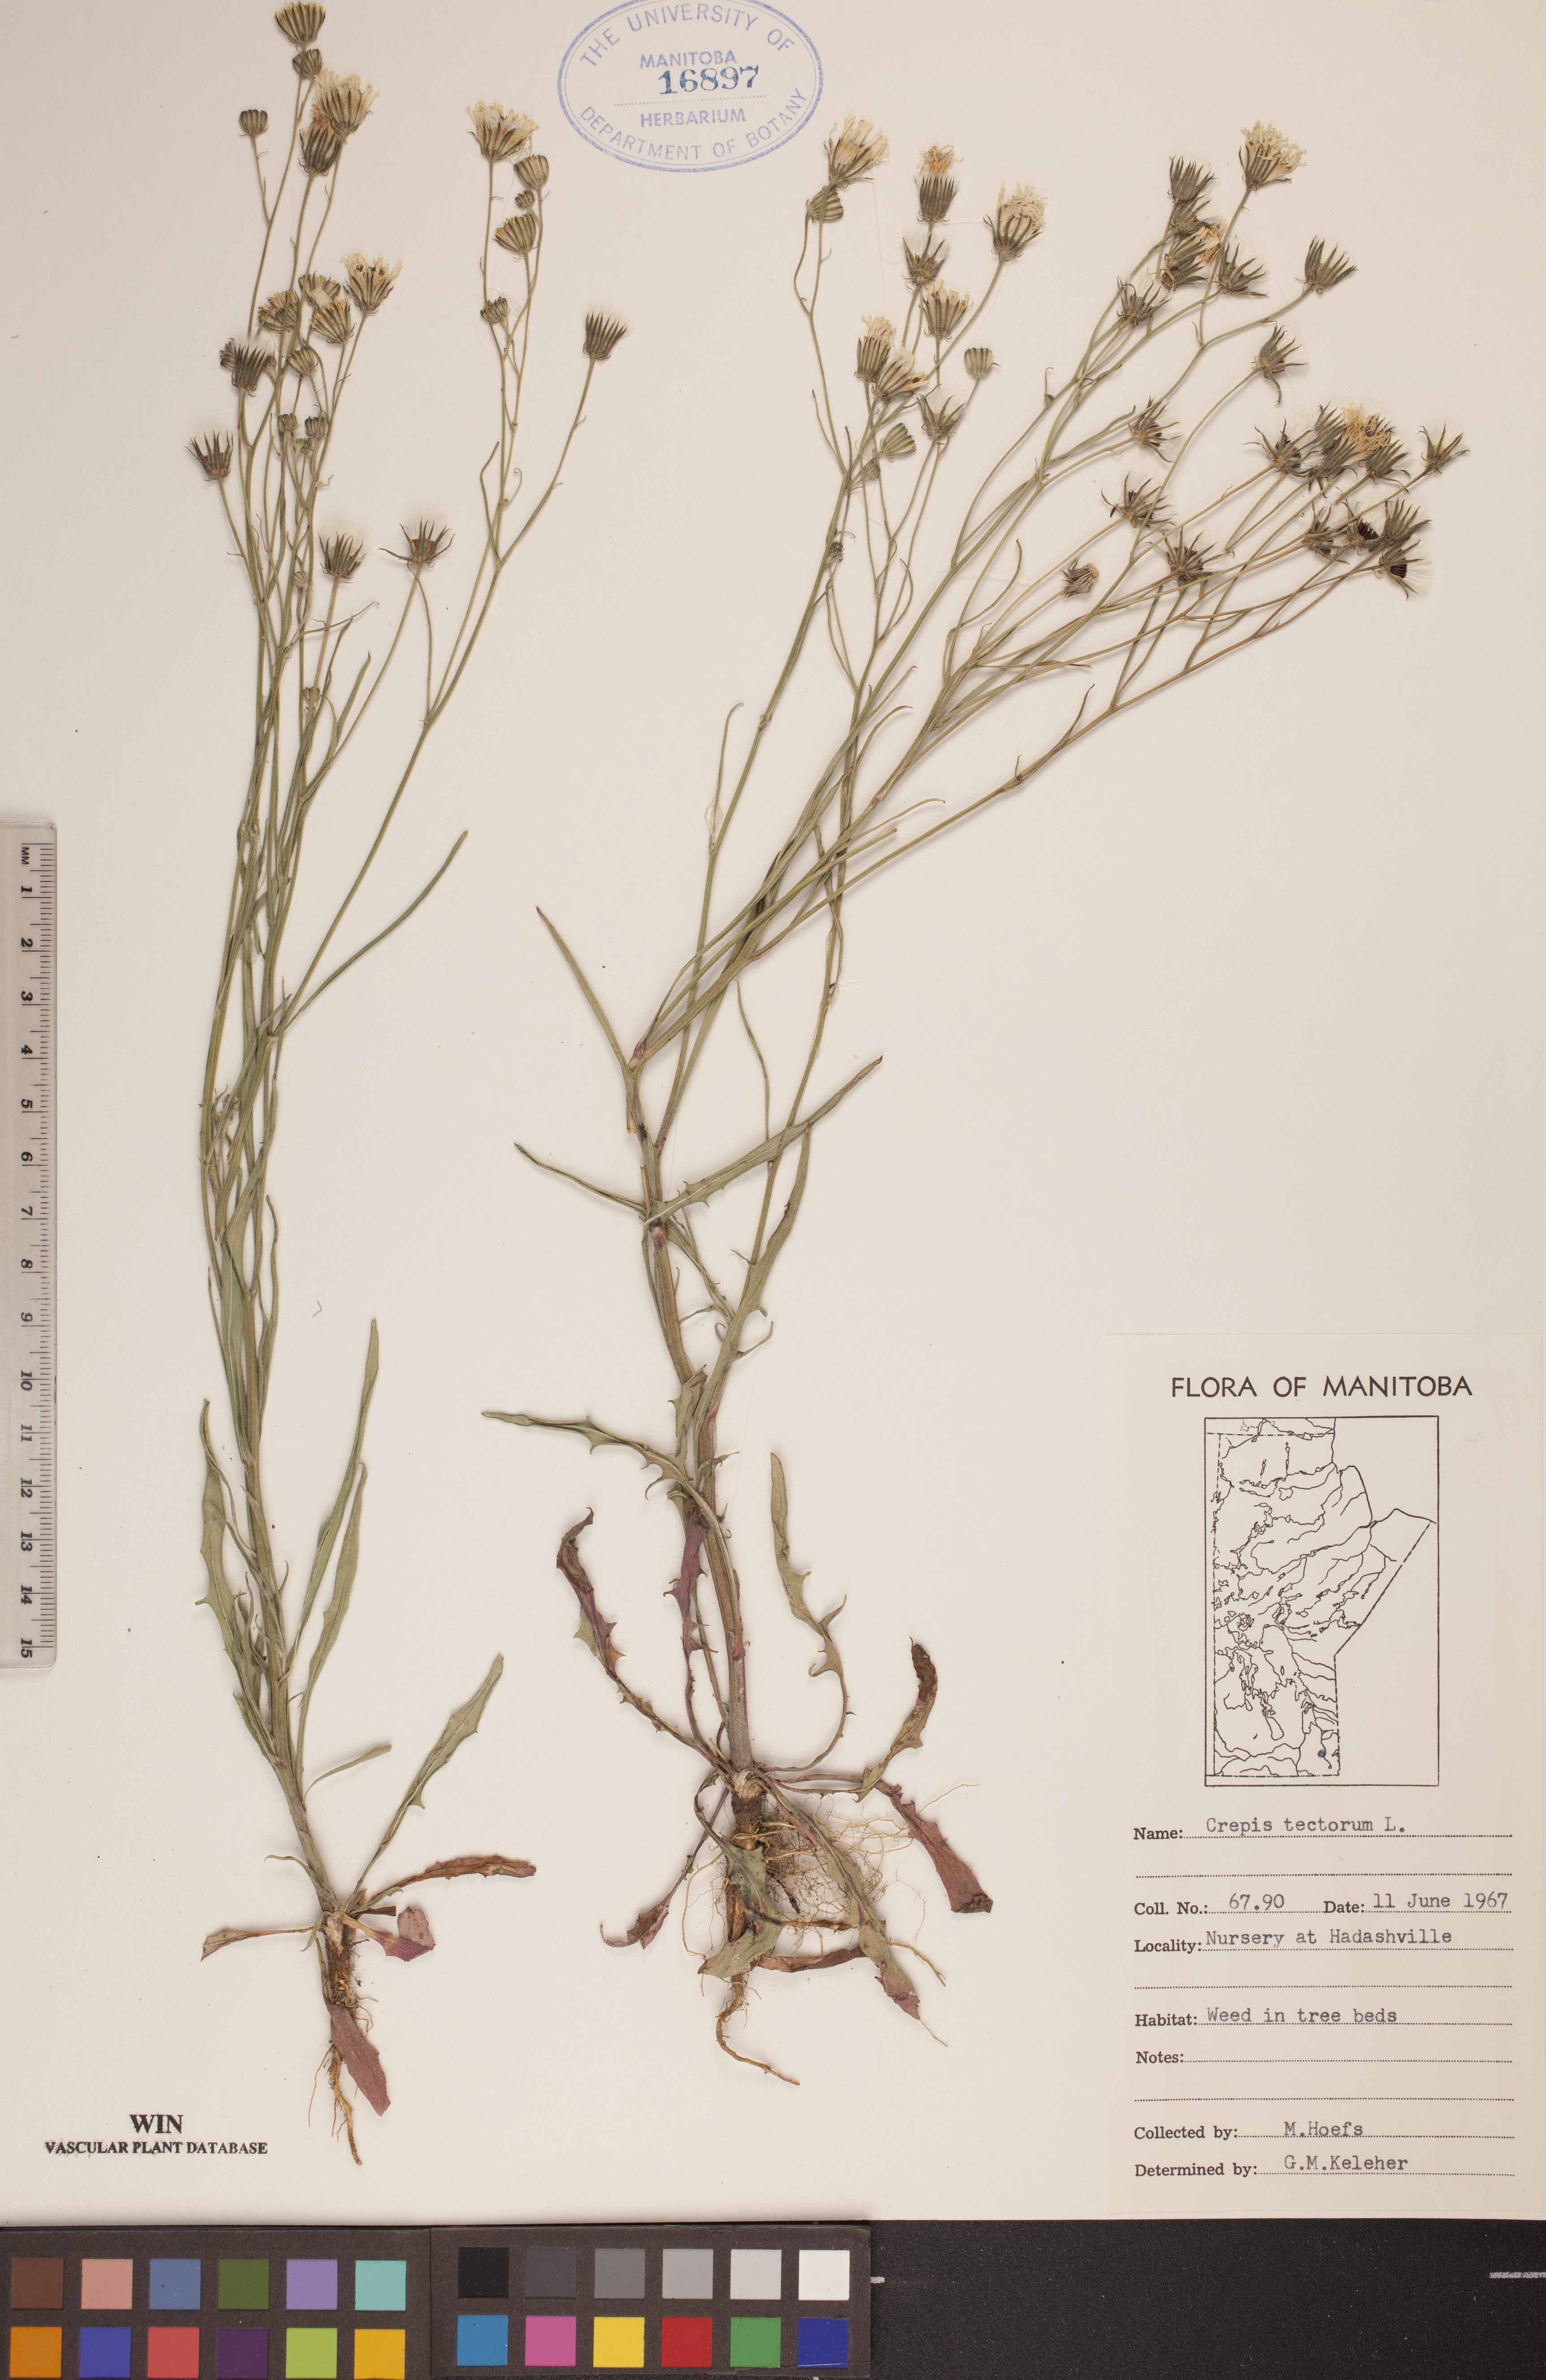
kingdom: Plantae
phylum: Tracheophyta
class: Magnoliopsida
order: Asterales
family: Asteraceae
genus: Crepis
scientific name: Crepis tectorum
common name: Narrow-leaved hawk's-beard
